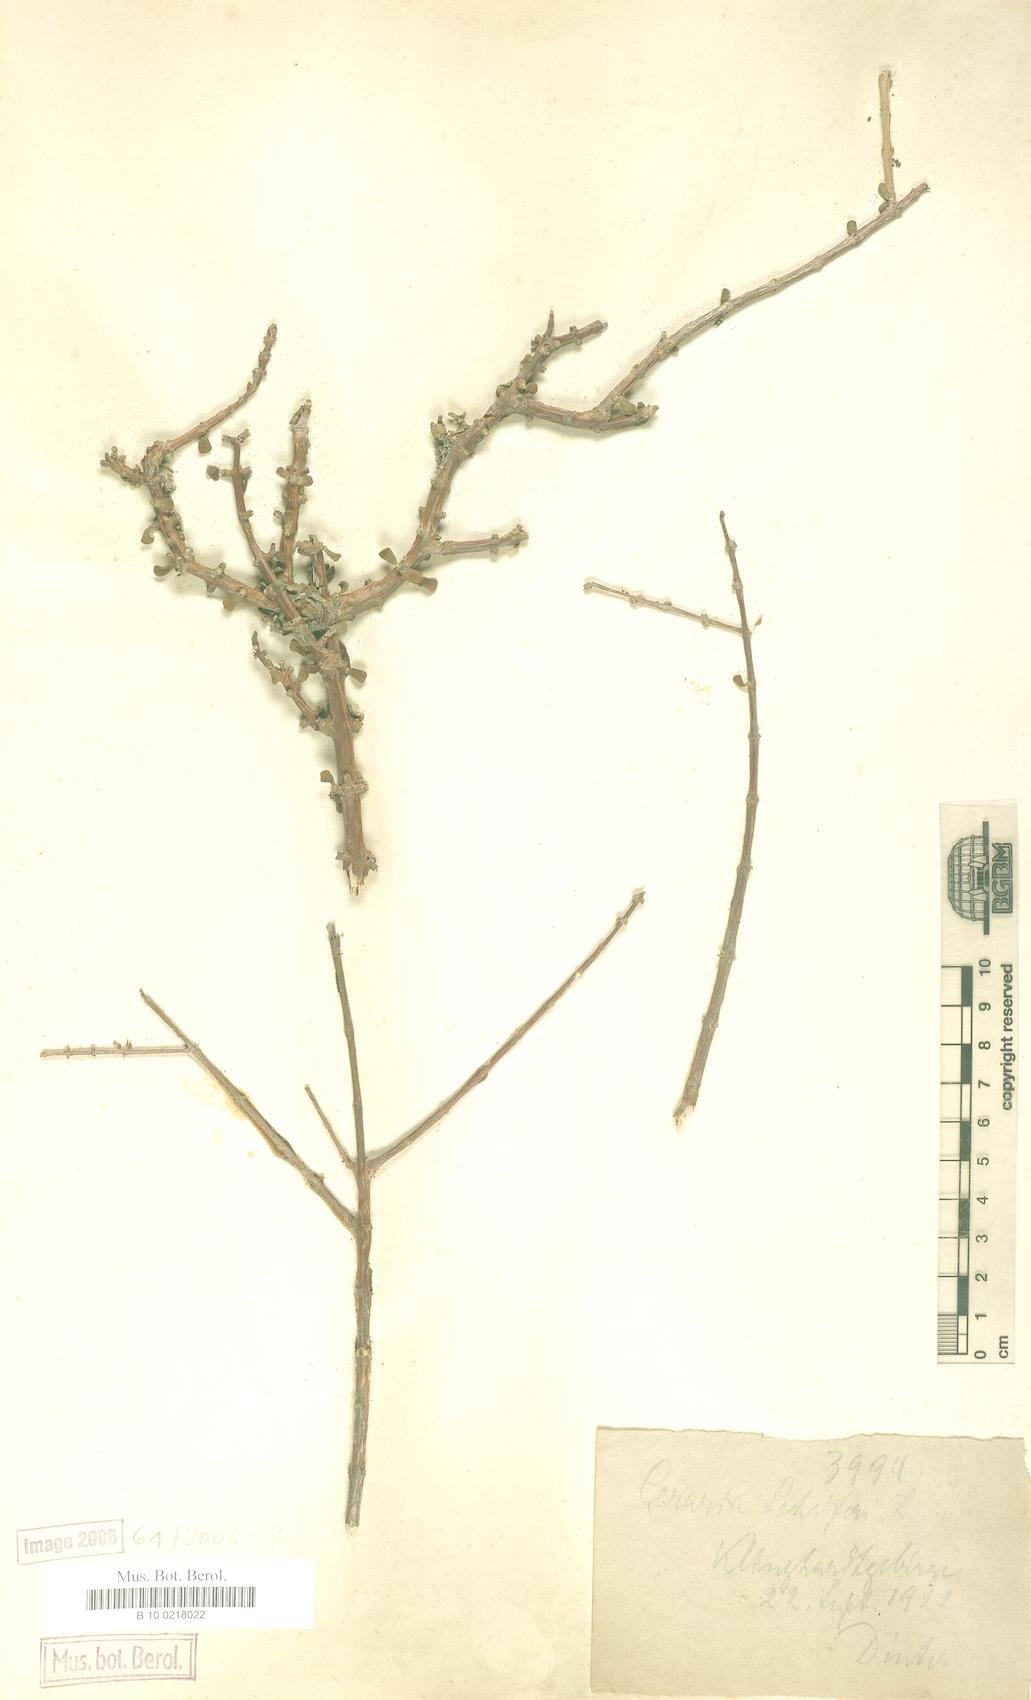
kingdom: Plantae
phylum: Tracheophyta
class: Magnoliopsida
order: Caryophyllales
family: Didiereaceae
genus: Portulacaria
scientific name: Portulacaria fruticulosa
